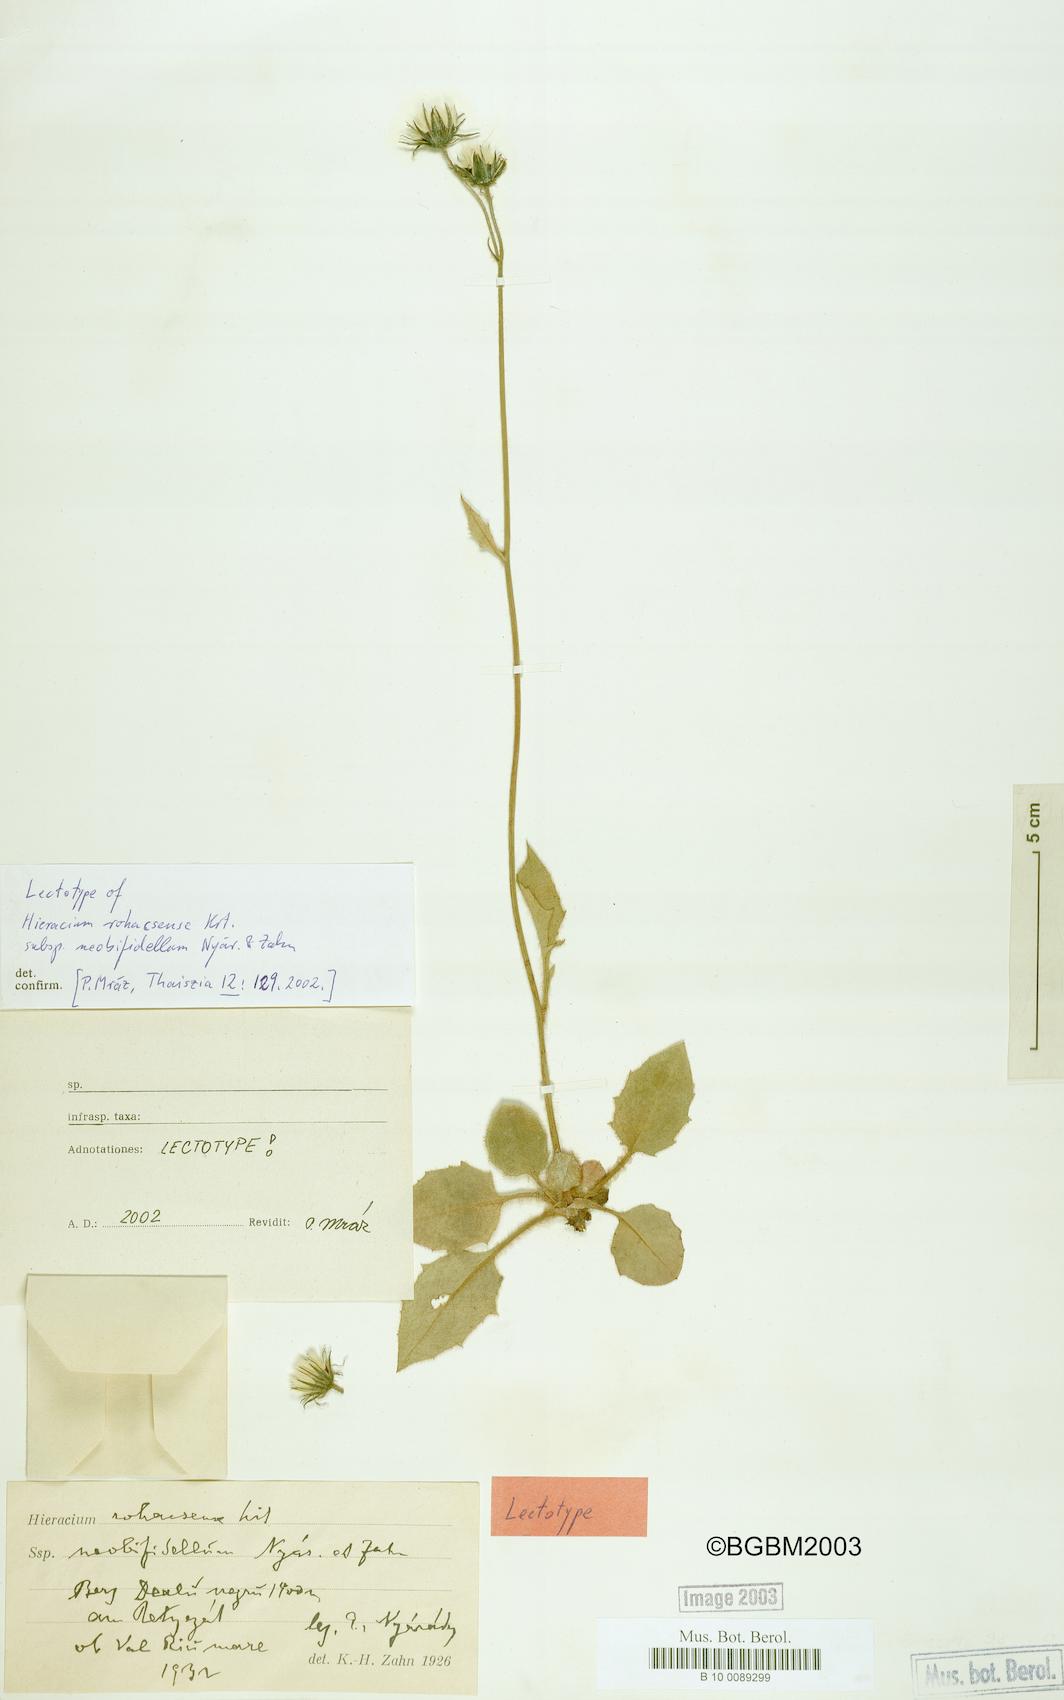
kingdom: Plantae
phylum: Tracheophyta
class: Magnoliopsida
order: Asterales
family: Asteraceae
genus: Hieracium
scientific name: Hieracium rohacsense
